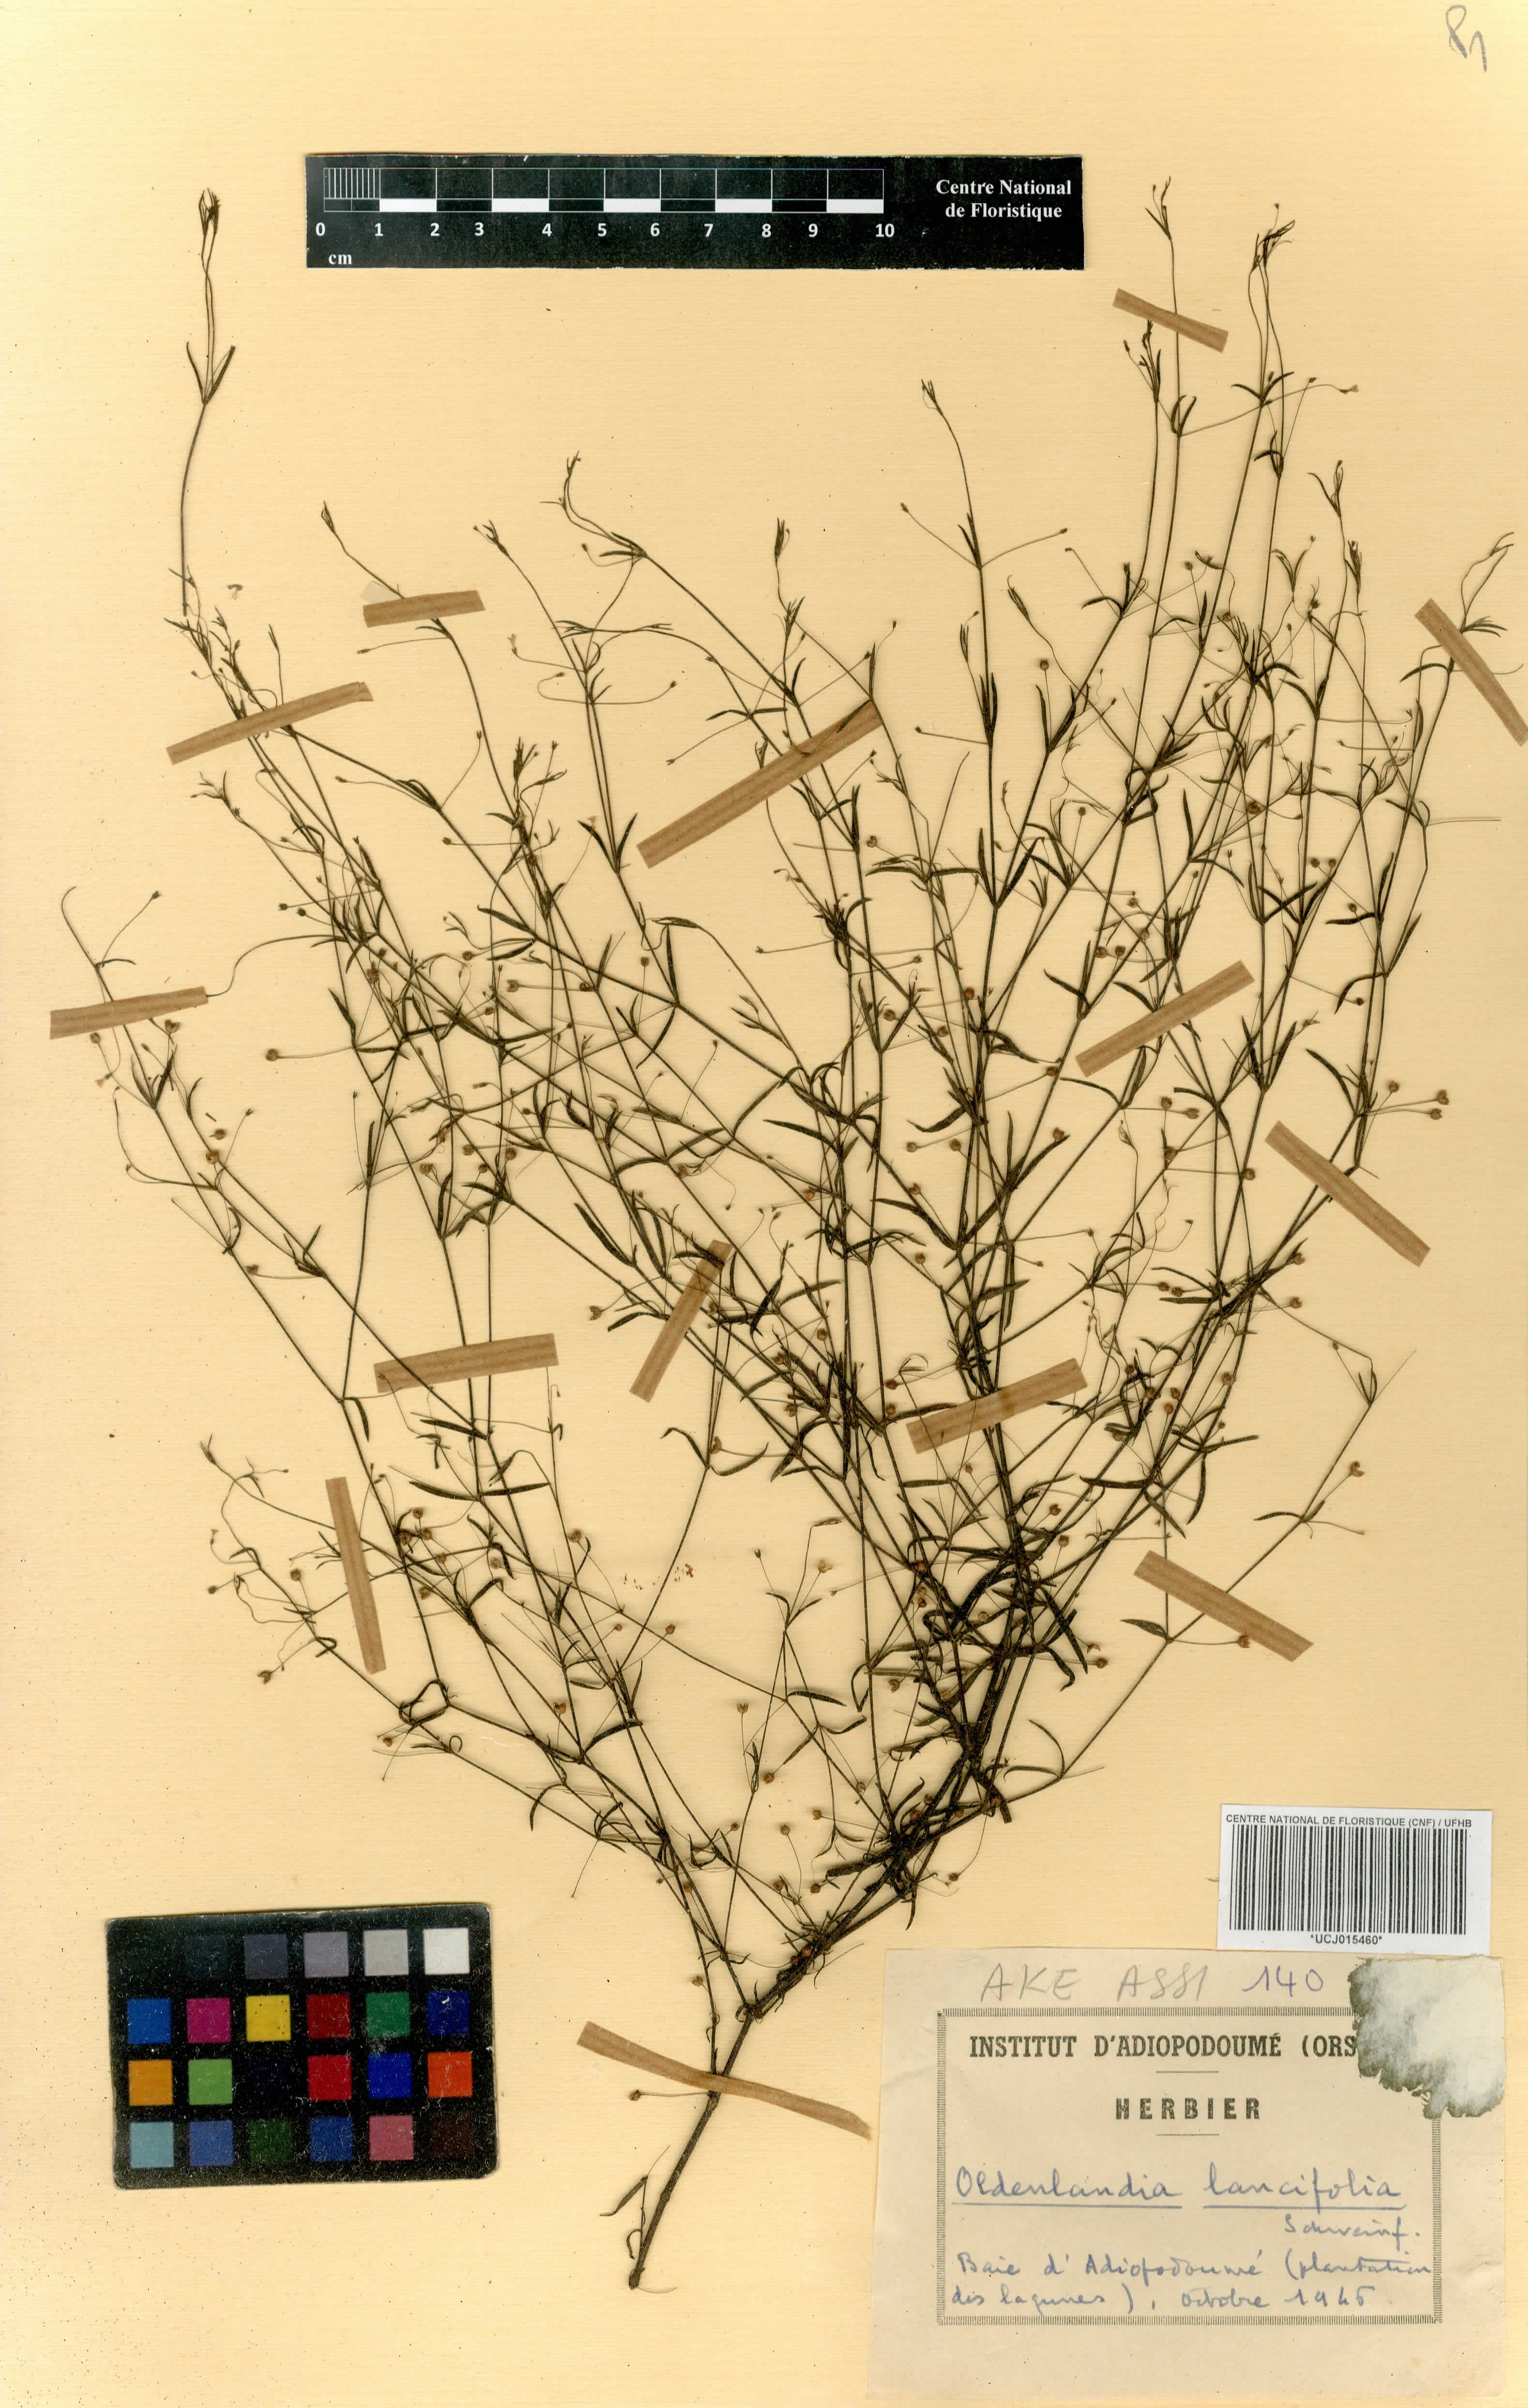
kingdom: Plantae
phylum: Tracheophyta
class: Magnoliopsida
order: Gentianales
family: Rubiaceae
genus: Oldenlandia
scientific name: Oldenlandia lancifolia
